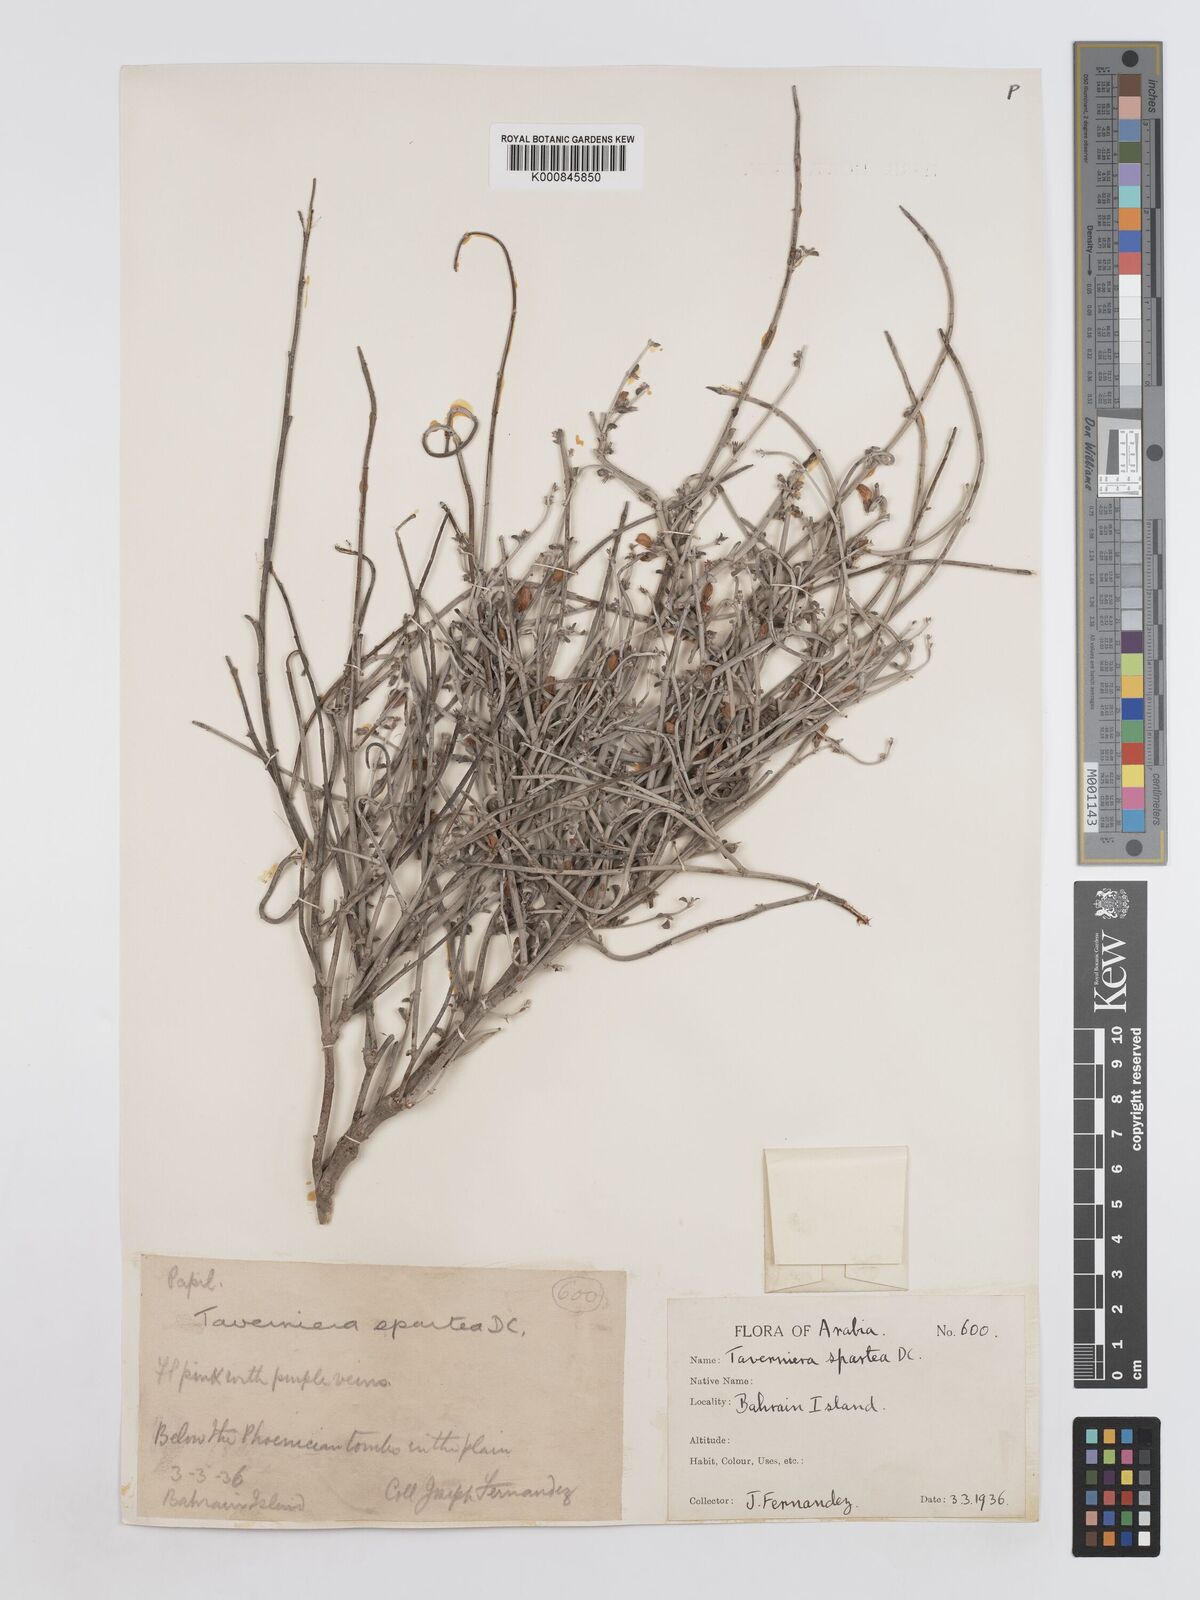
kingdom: Plantae
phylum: Tracheophyta
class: Magnoliopsida
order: Fabales
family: Fabaceae
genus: Taverniera
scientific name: Taverniera spartea
